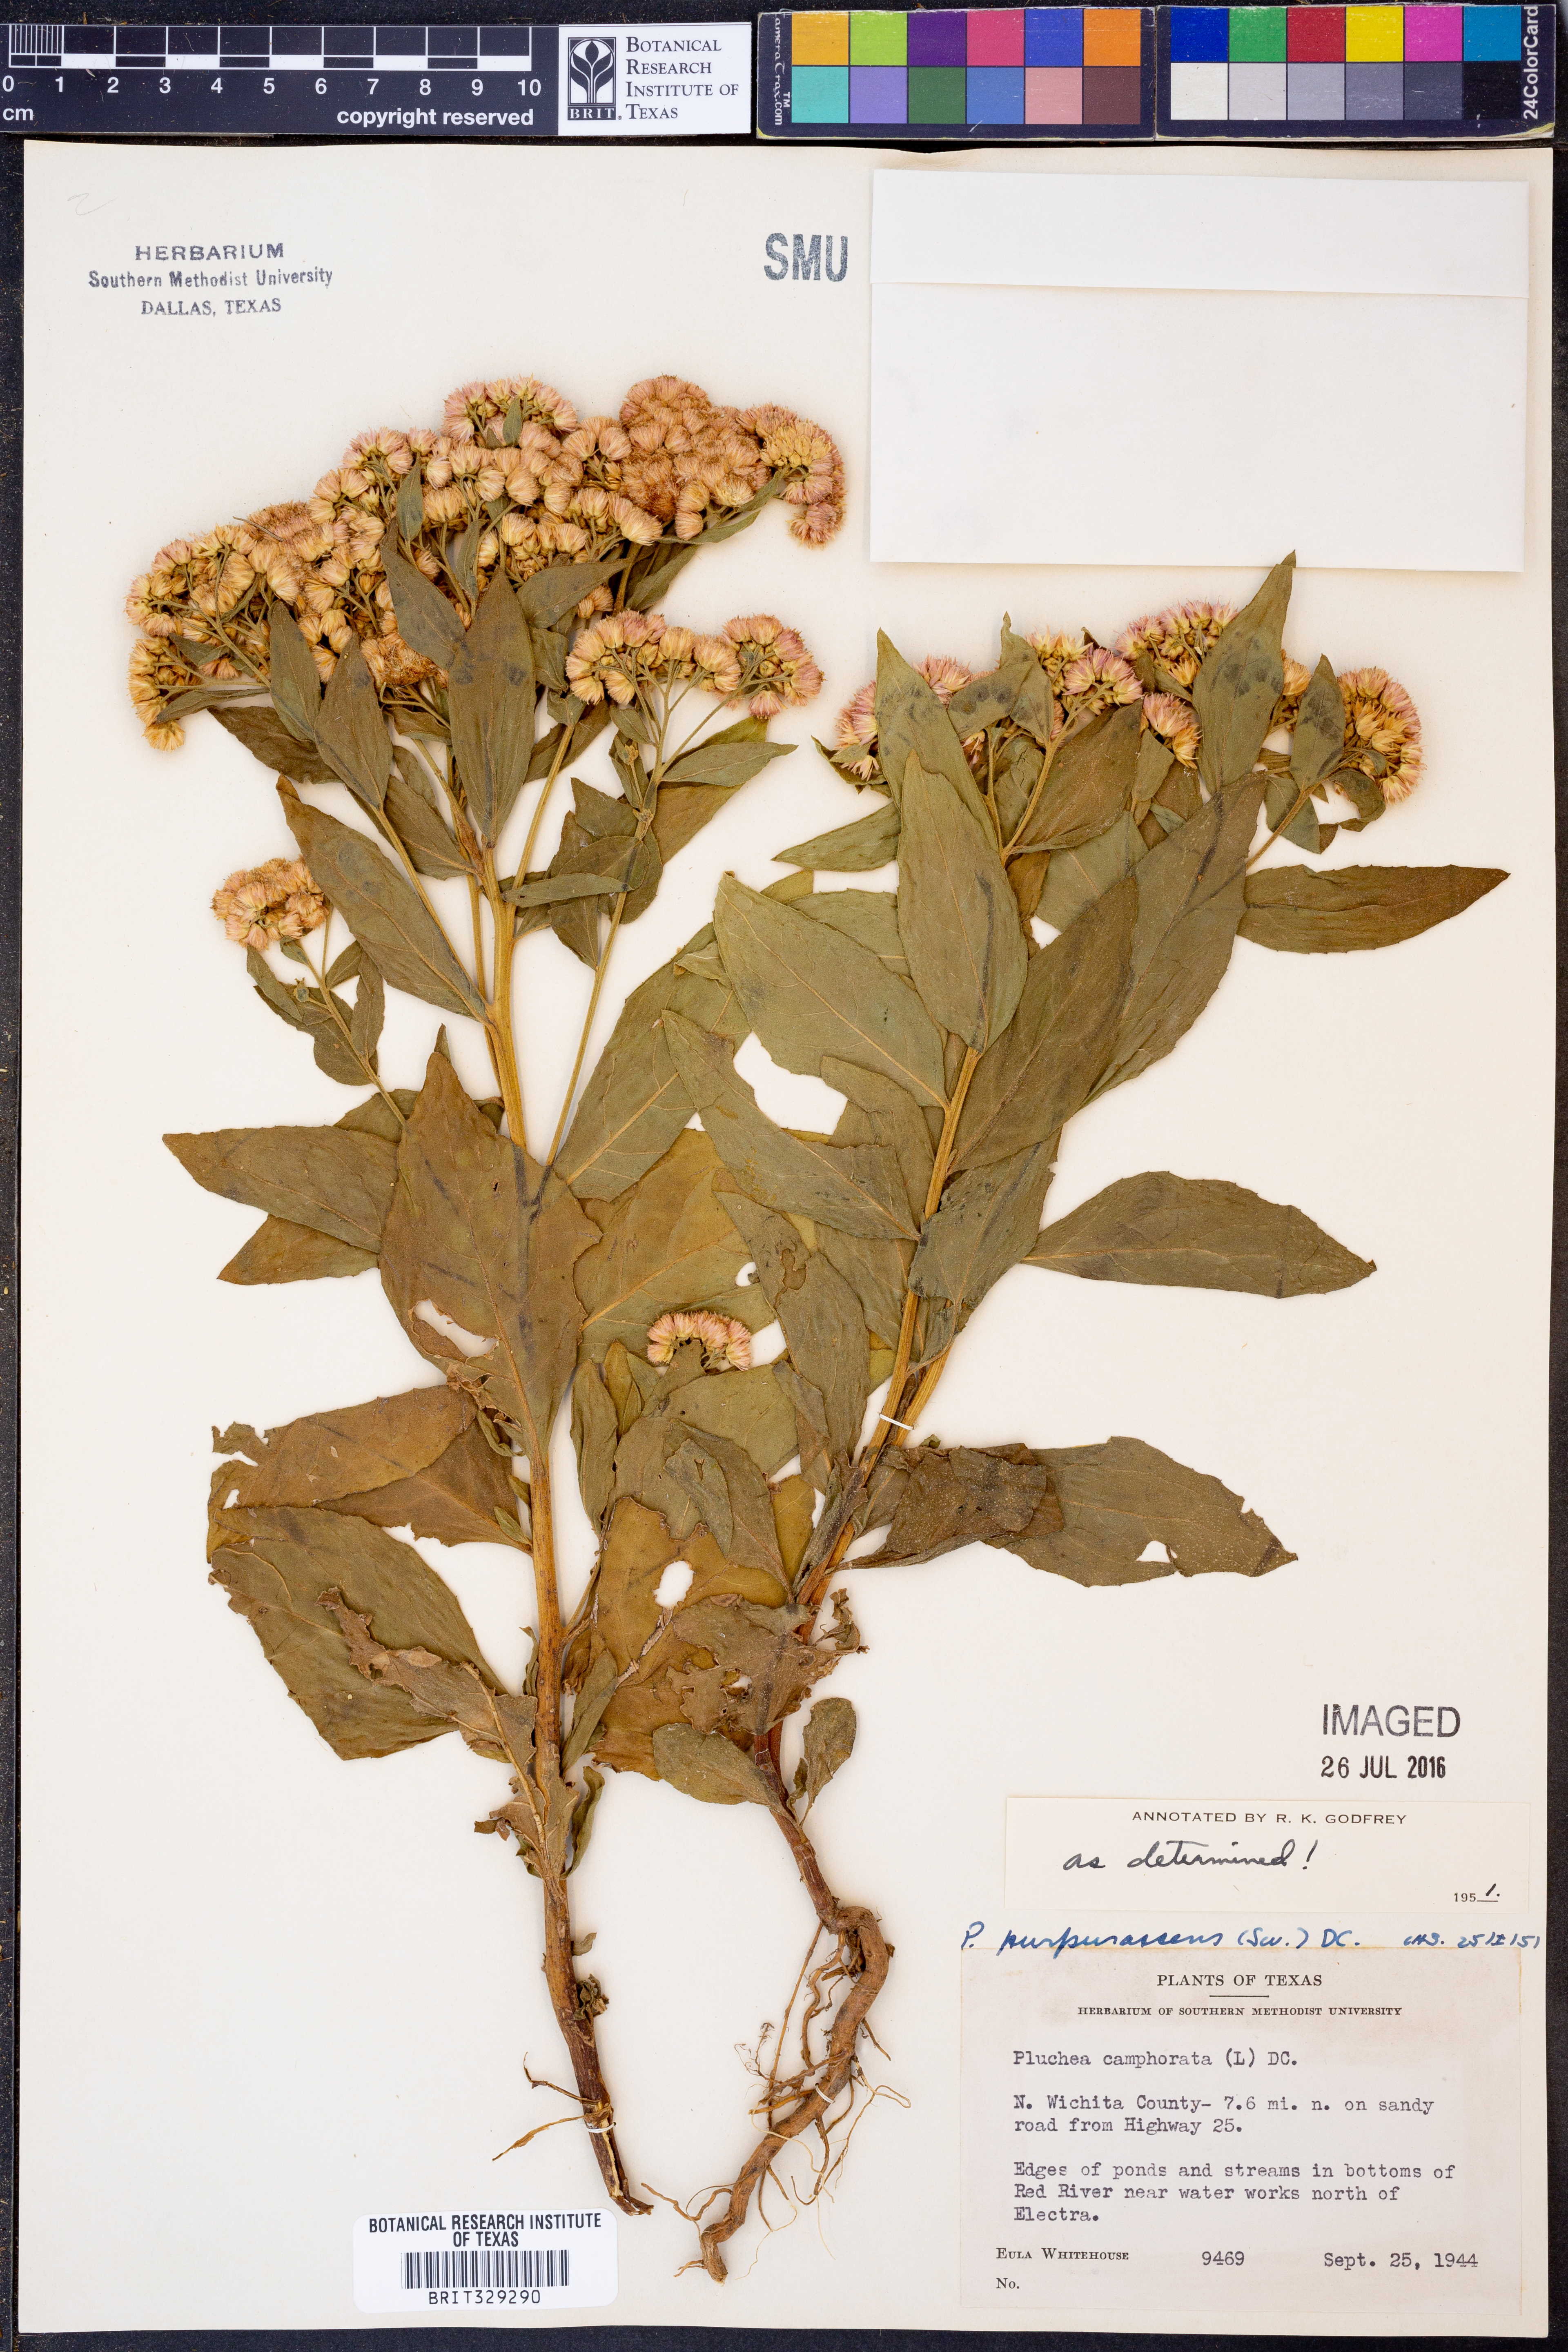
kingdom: Plantae
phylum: Tracheophyta
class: Magnoliopsida
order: Asterales
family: Asteraceae
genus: Pluchea
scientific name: Pluchea odorata
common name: Saltmarsh fleabane
